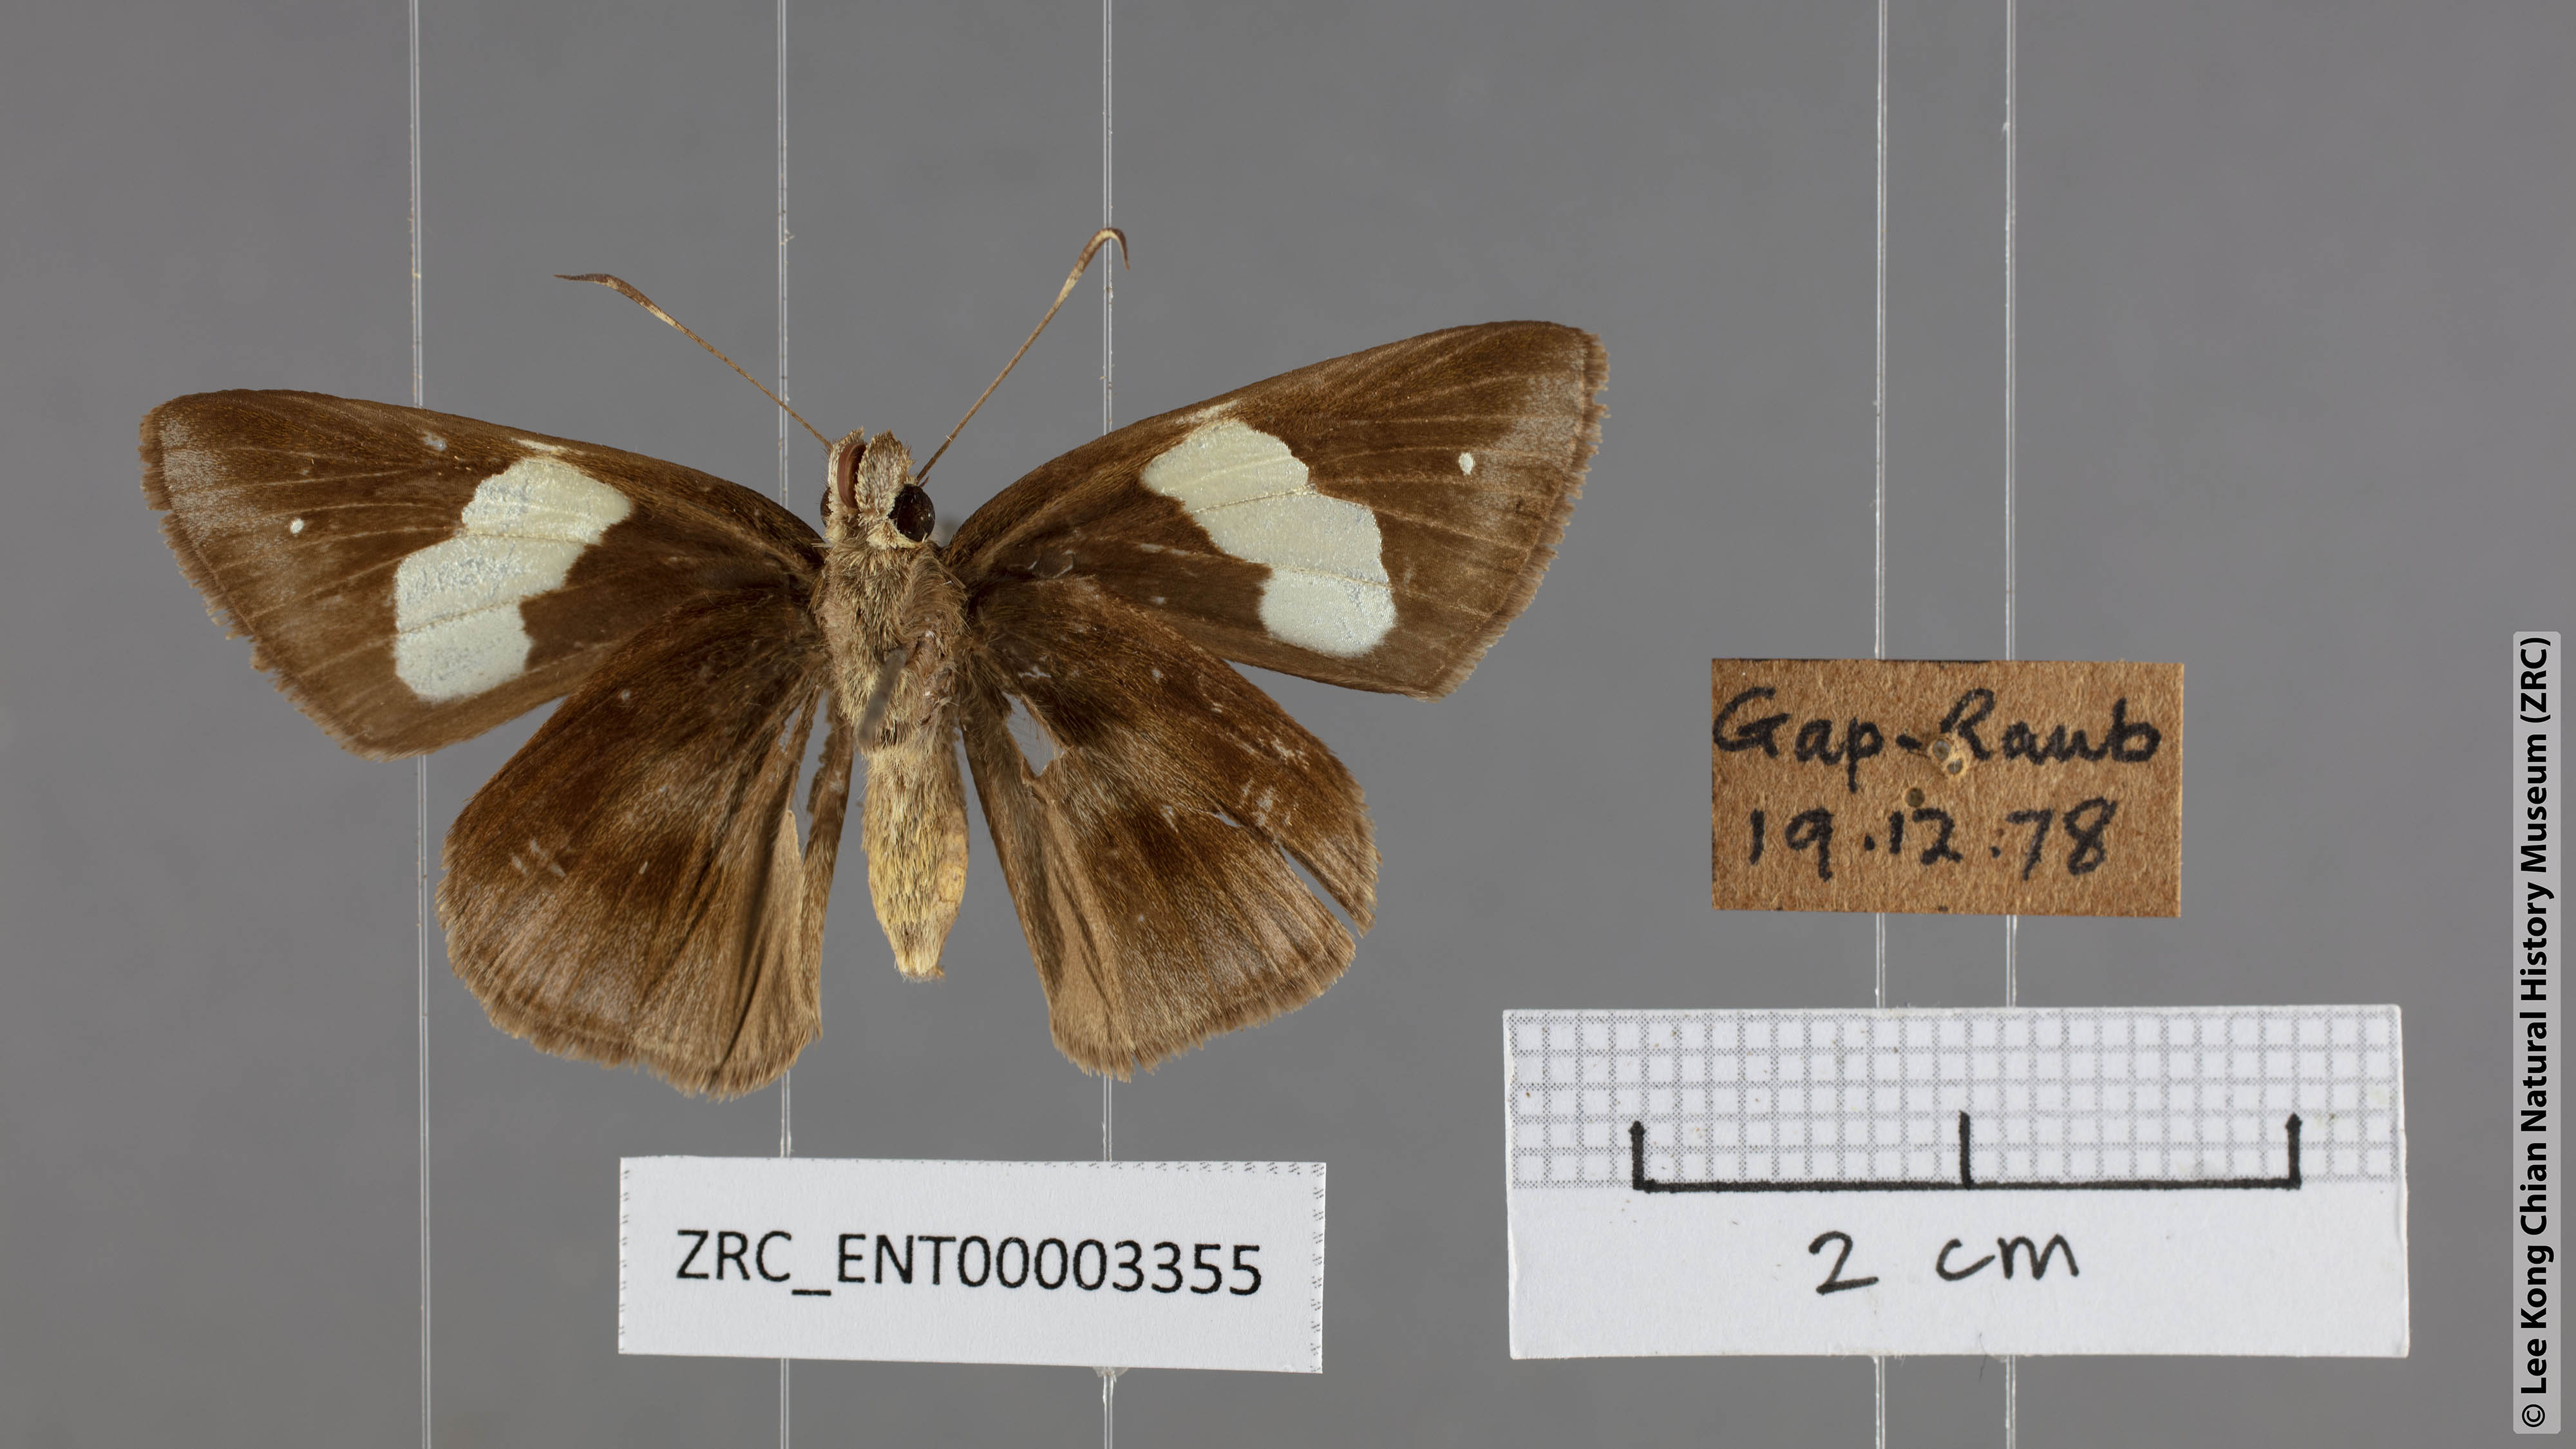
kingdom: Animalia
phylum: Arthropoda
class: Insecta
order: Lepidoptera
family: Hesperiidae
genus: Notocrypta
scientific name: Notocrypta feisthamelii
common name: Spotted demon
